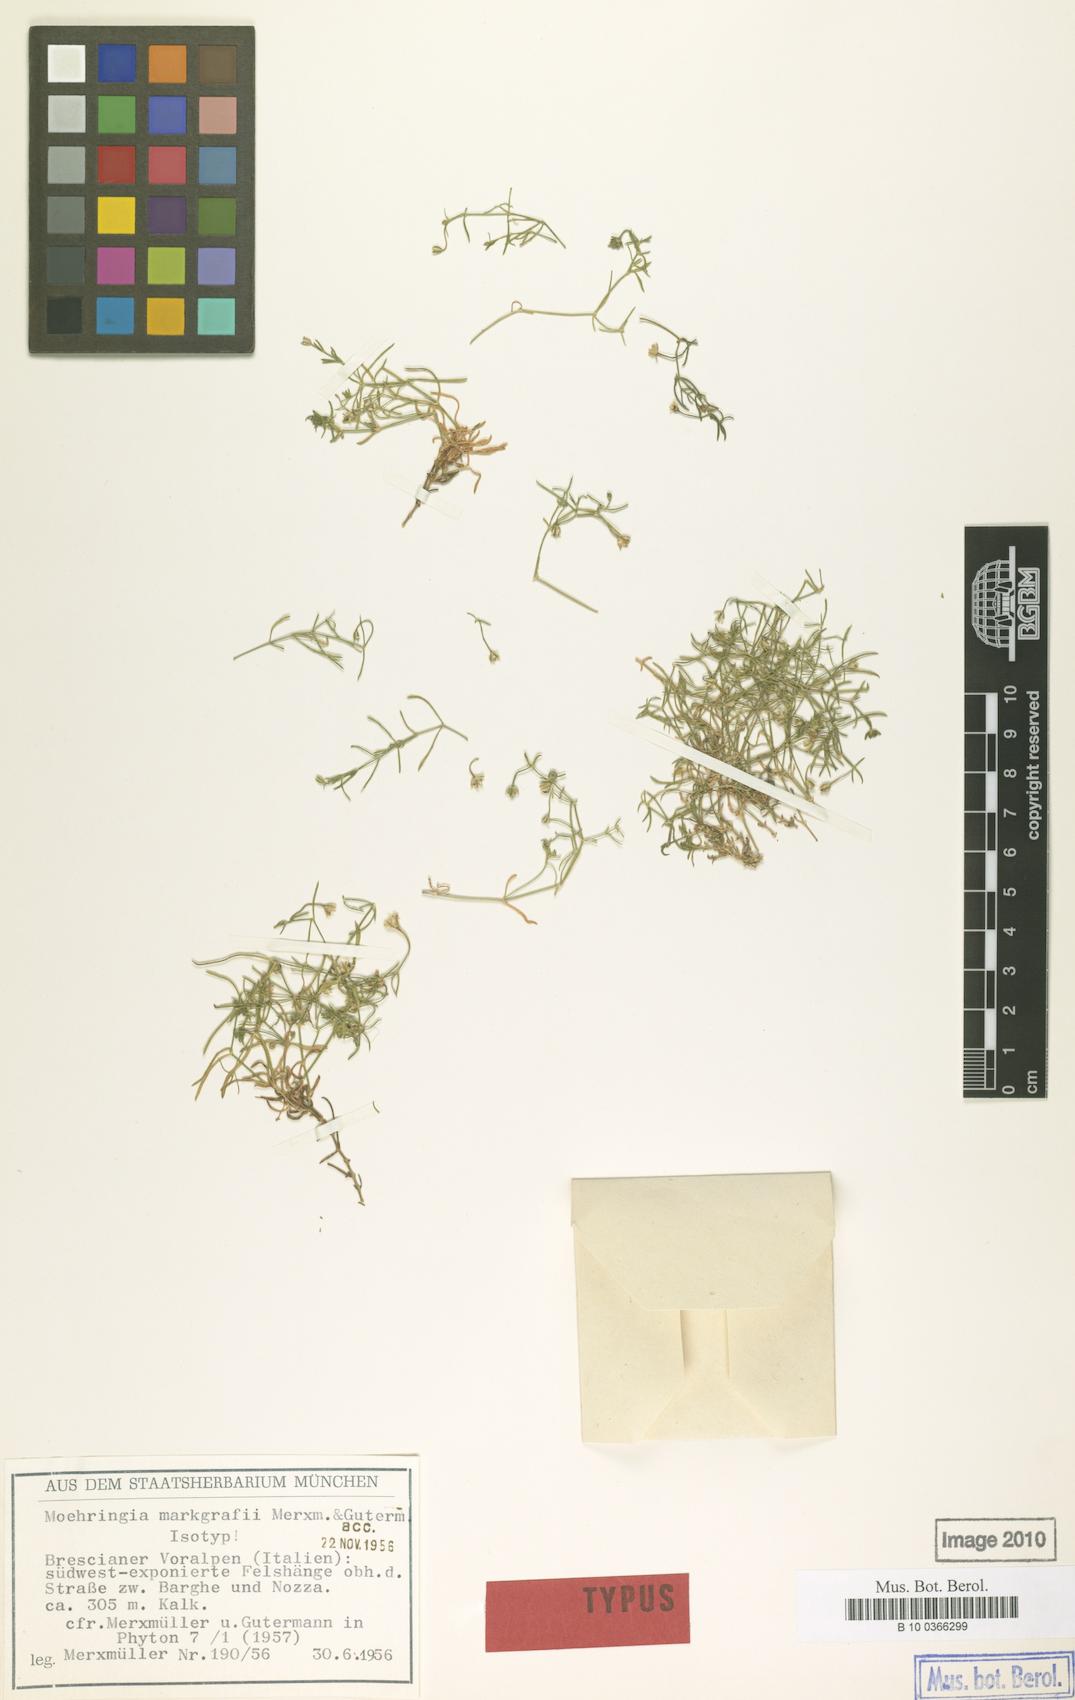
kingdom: Plantae
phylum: Tracheophyta
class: Magnoliopsida
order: Caryophyllales
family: Caryophyllaceae
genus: Moehringia
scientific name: Moehringia markgrafii
